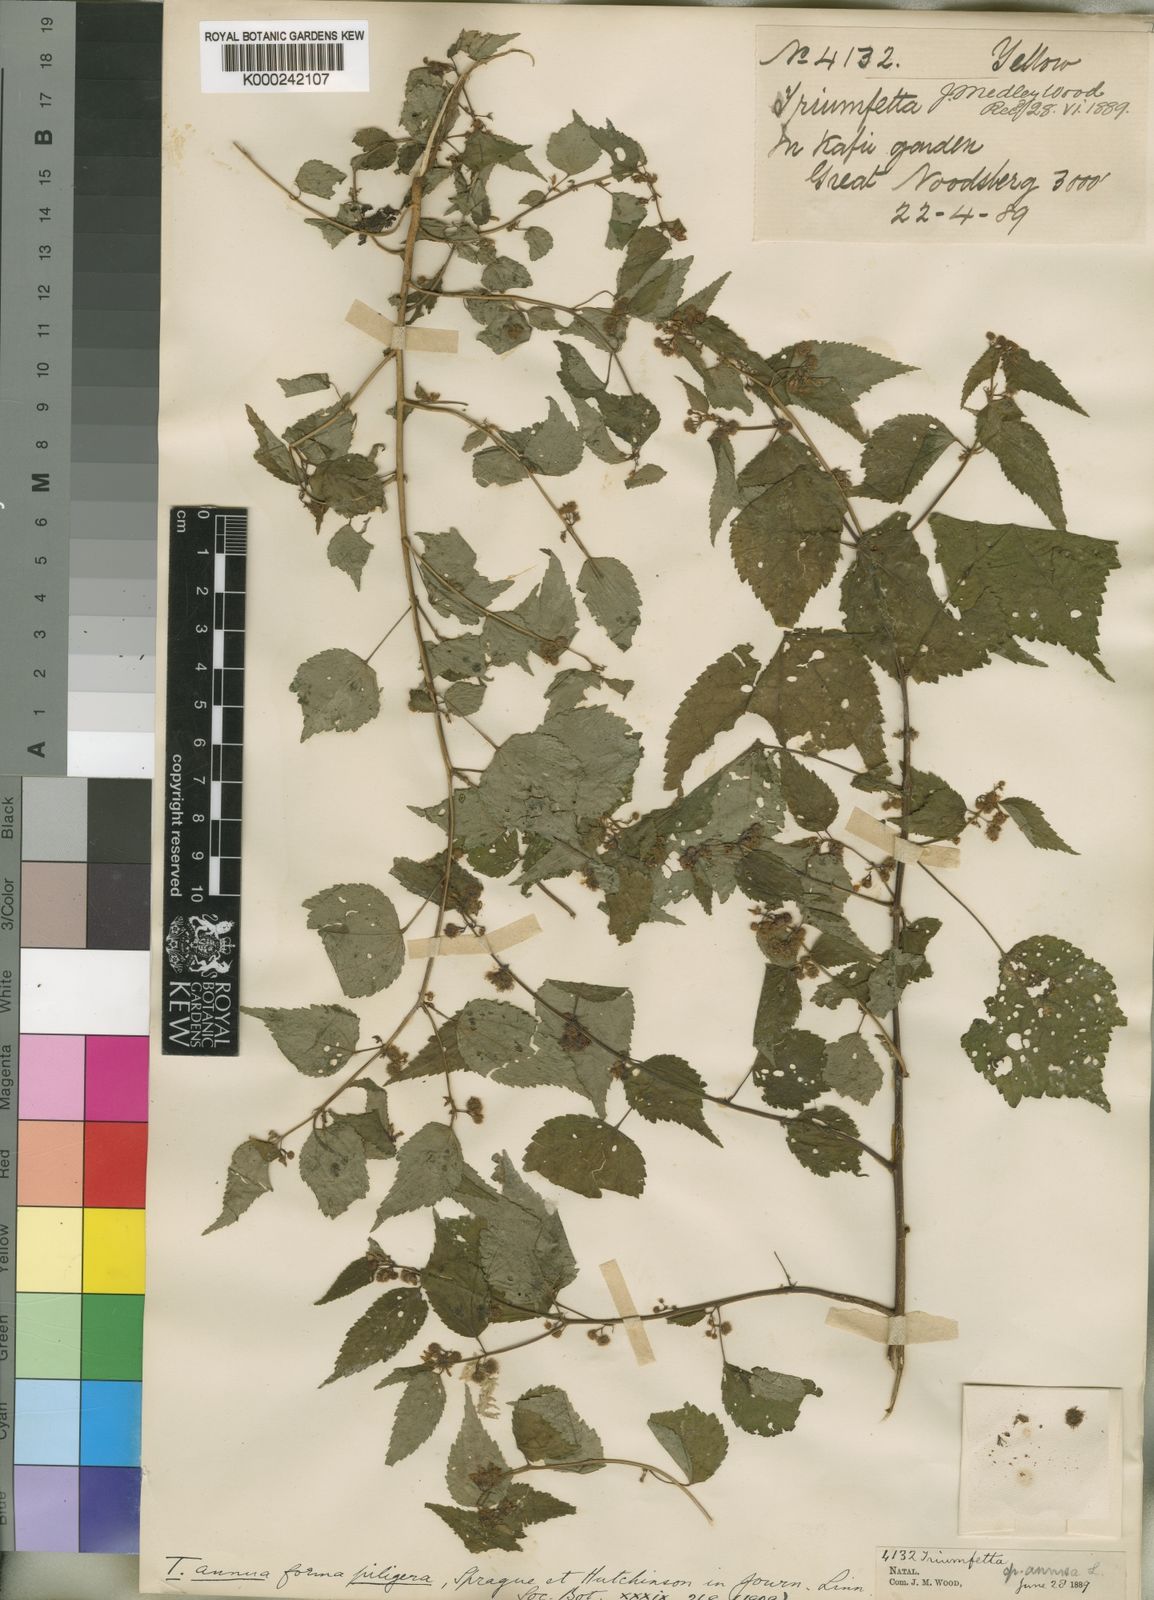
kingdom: Plantae
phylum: Tracheophyta
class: Magnoliopsida
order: Malvales
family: Malvaceae
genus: Triumfetta
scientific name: Triumfetta annua
